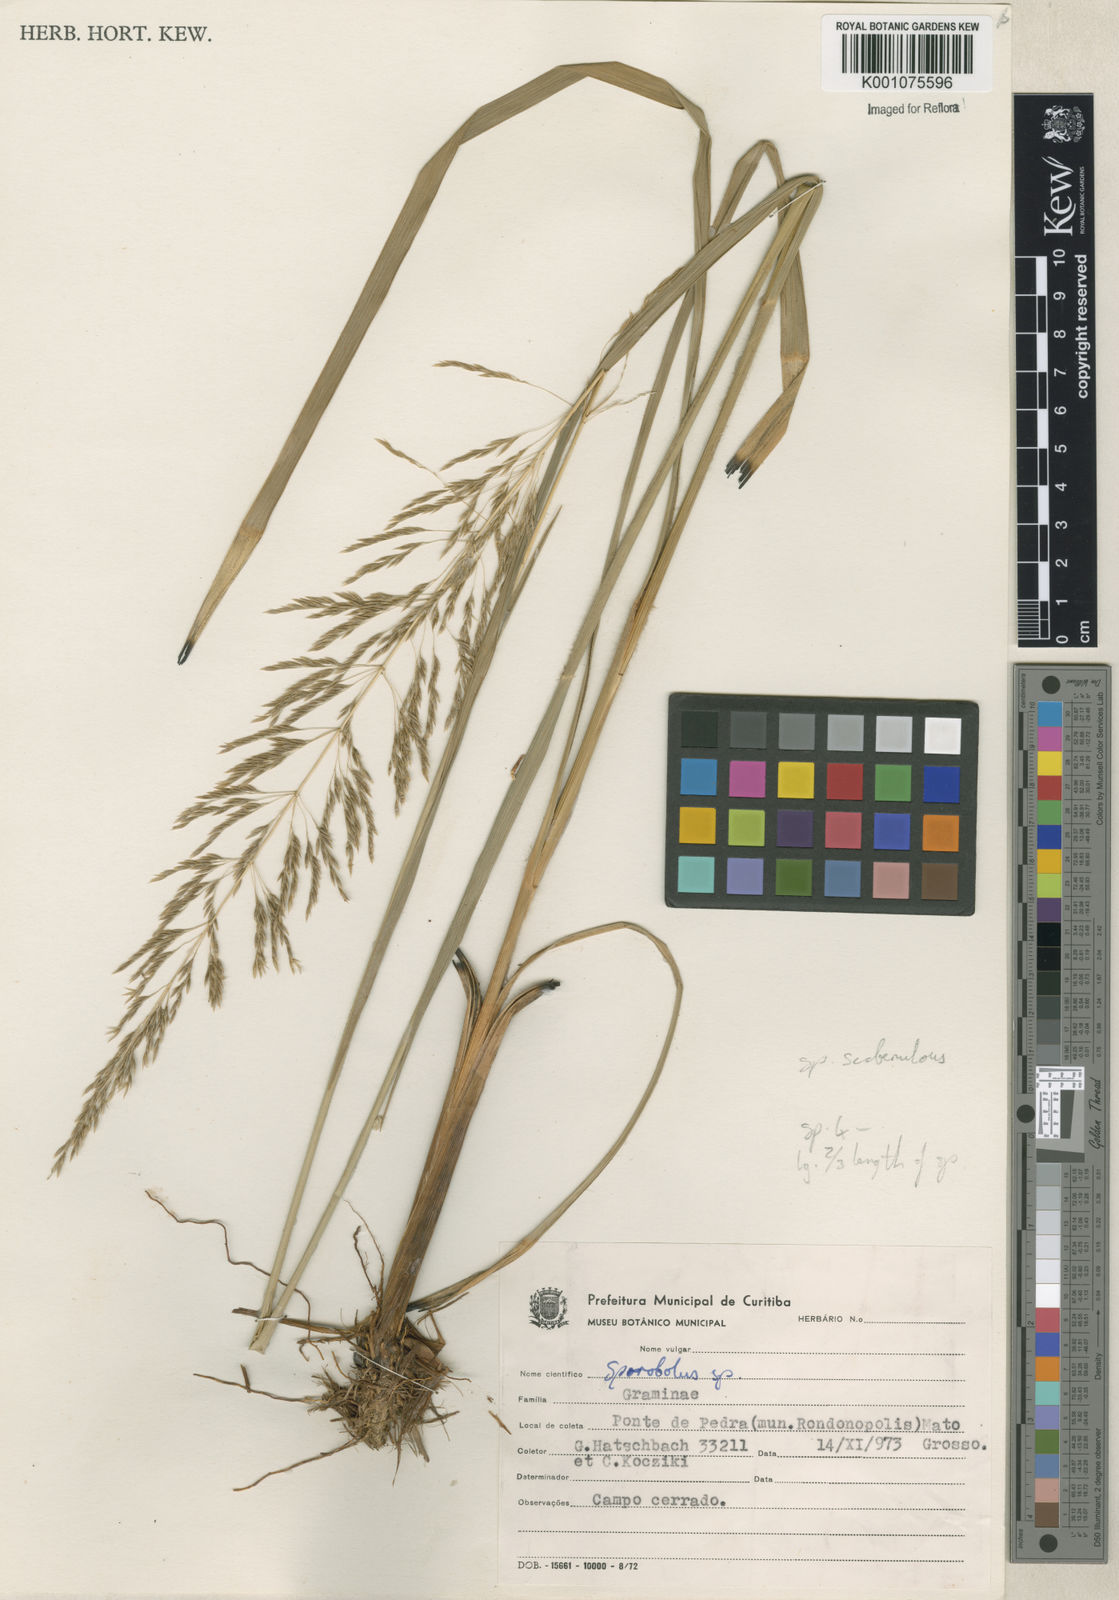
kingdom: Plantae
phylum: Tracheophyta
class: Liliopsida
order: Poales
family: Poaceae
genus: Sporobolus
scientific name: Sporobolus eximius
